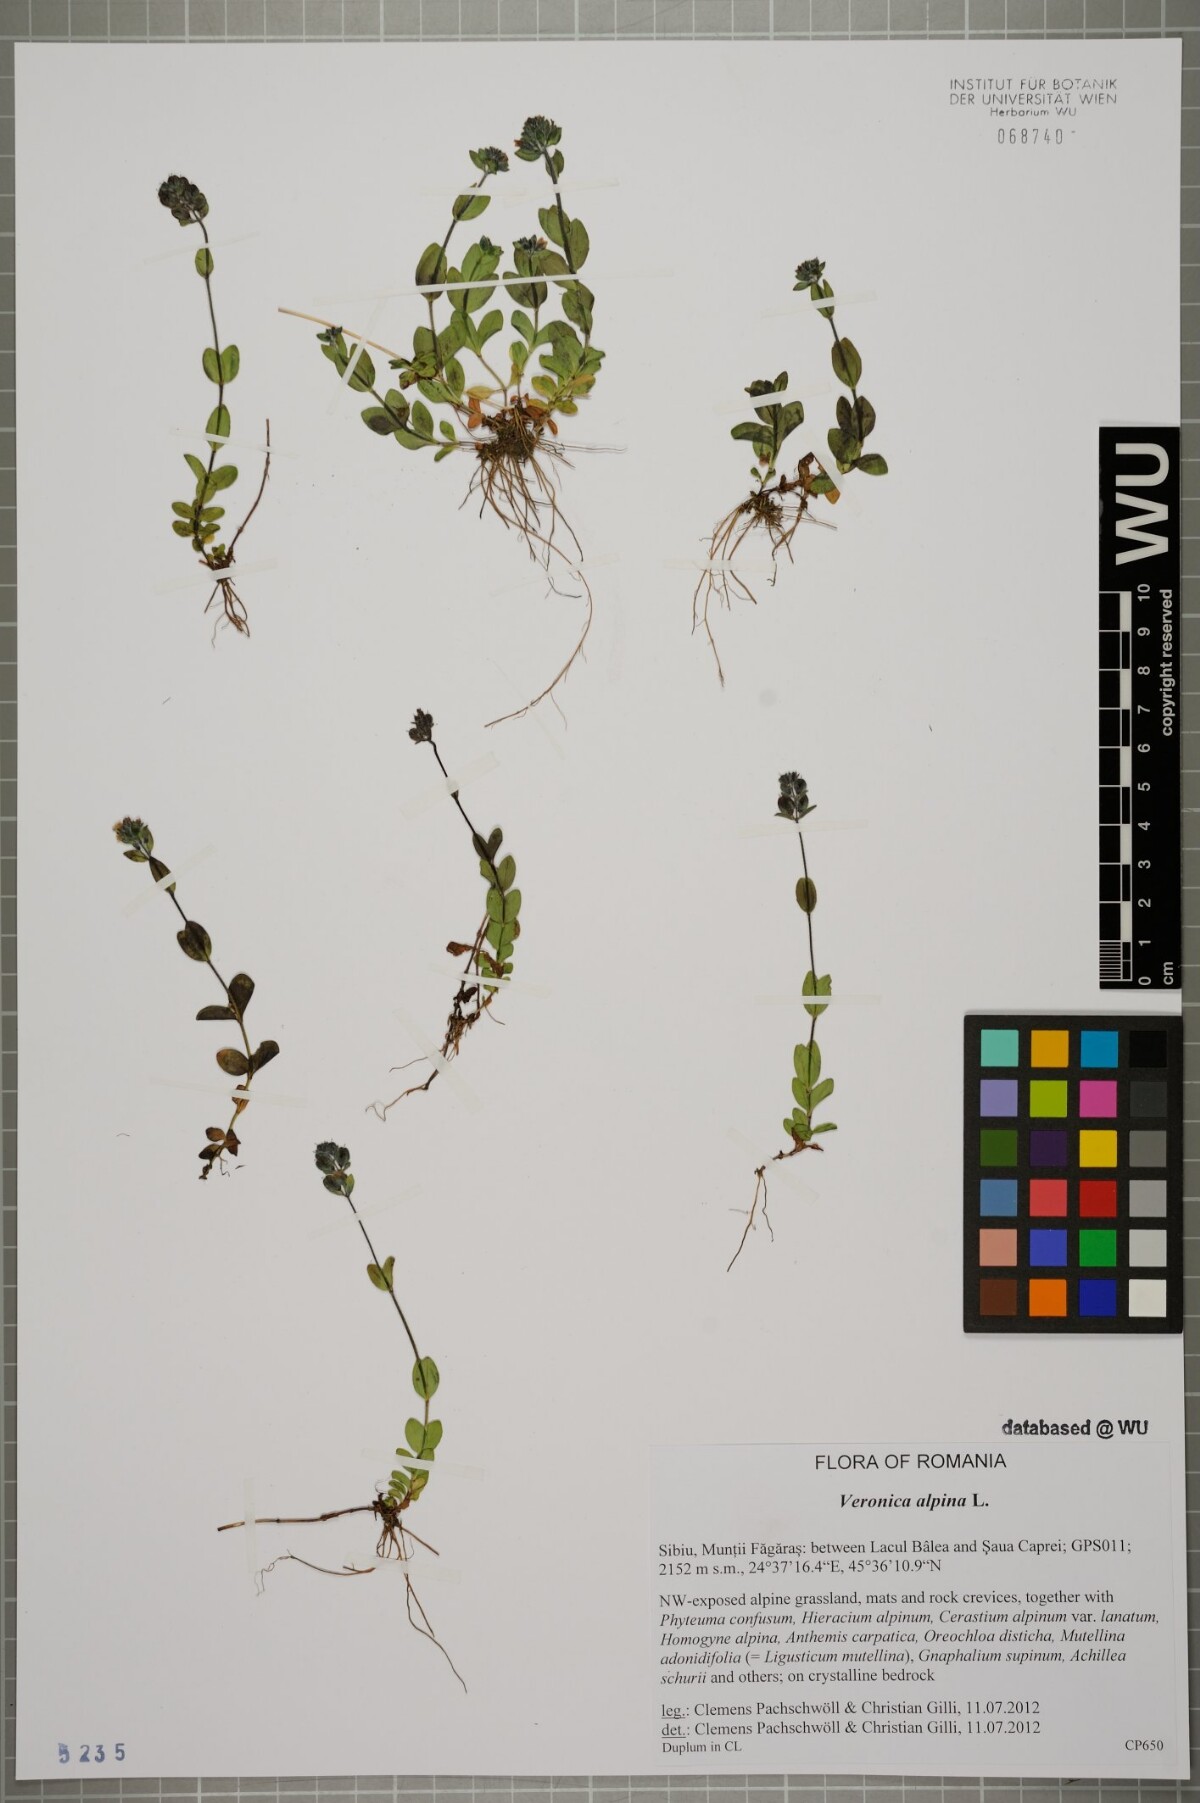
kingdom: Plantae
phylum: Tracheophyta
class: Magnoliopsida
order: Lamiales
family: Plantaginaceae
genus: Veronica
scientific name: Veronica alpina
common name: Alpine speedwell
